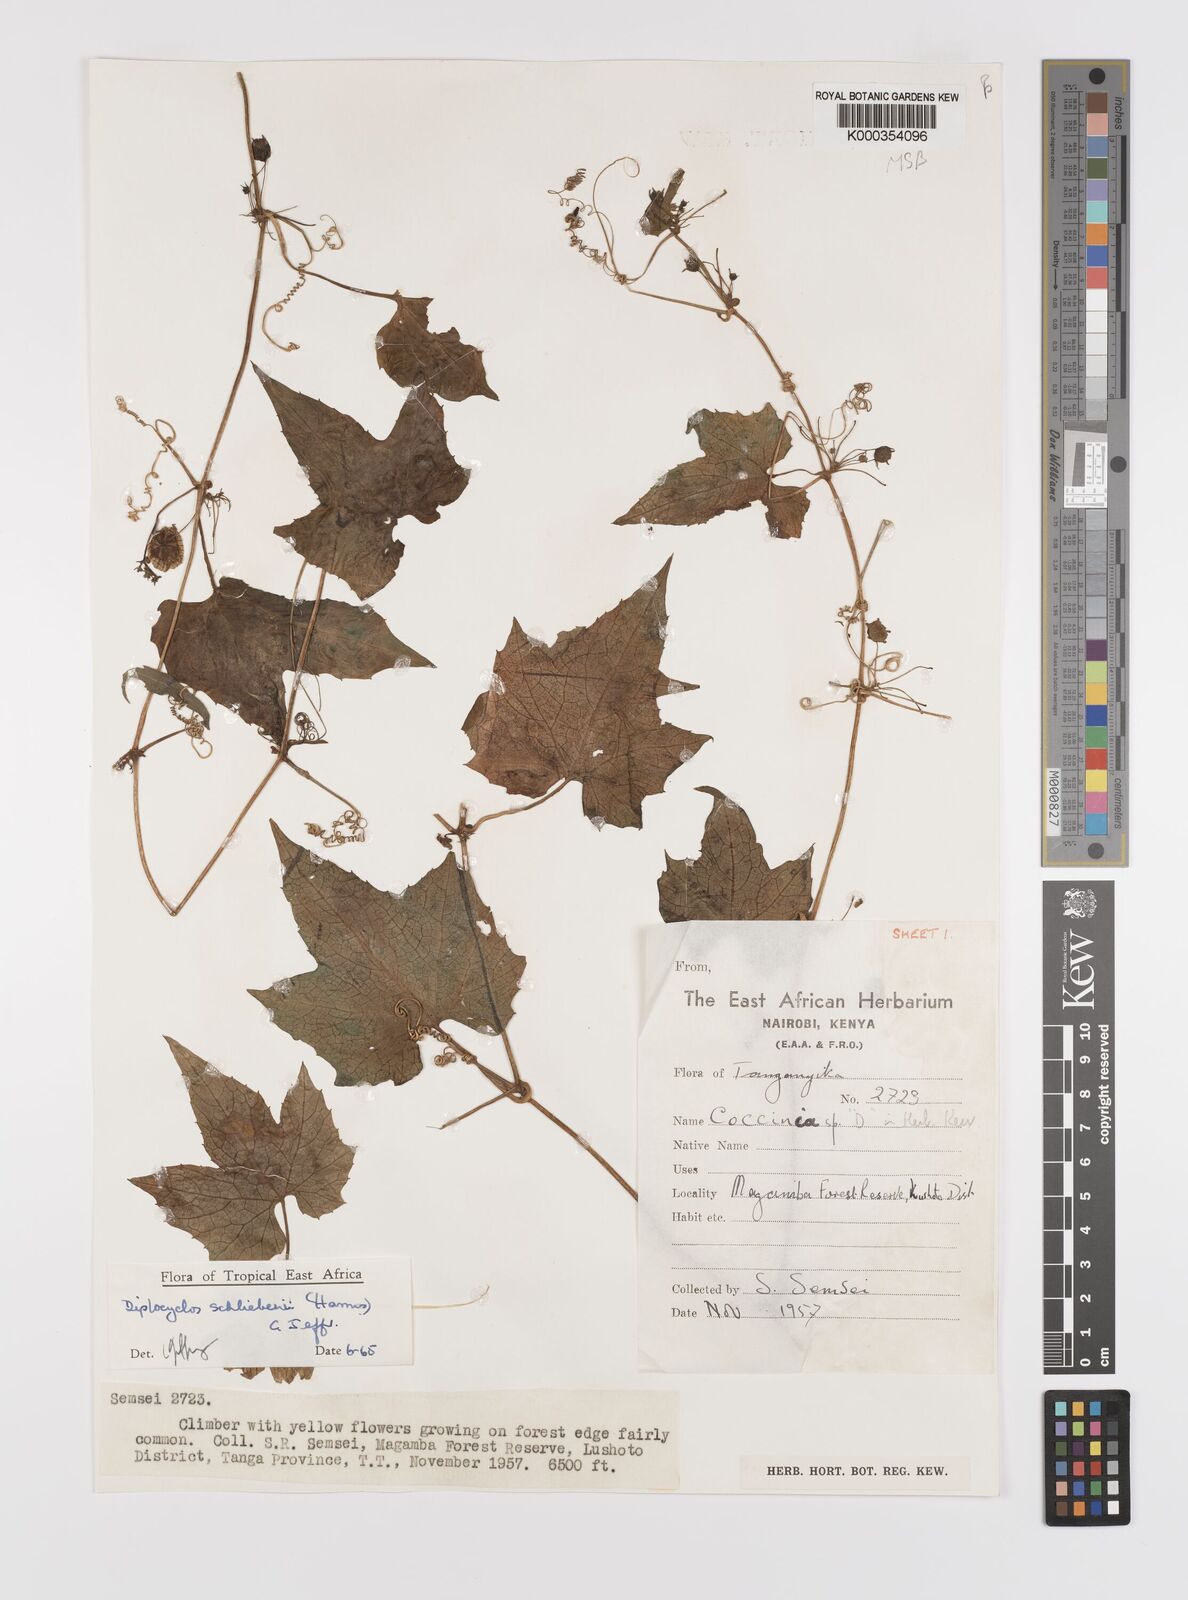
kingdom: Plantae
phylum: Tracheophyta
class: Magnoliopsida
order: Cucurbitales
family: Cucurbitaceae
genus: Diplocyclos
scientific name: Diplocyclos schliebenii
